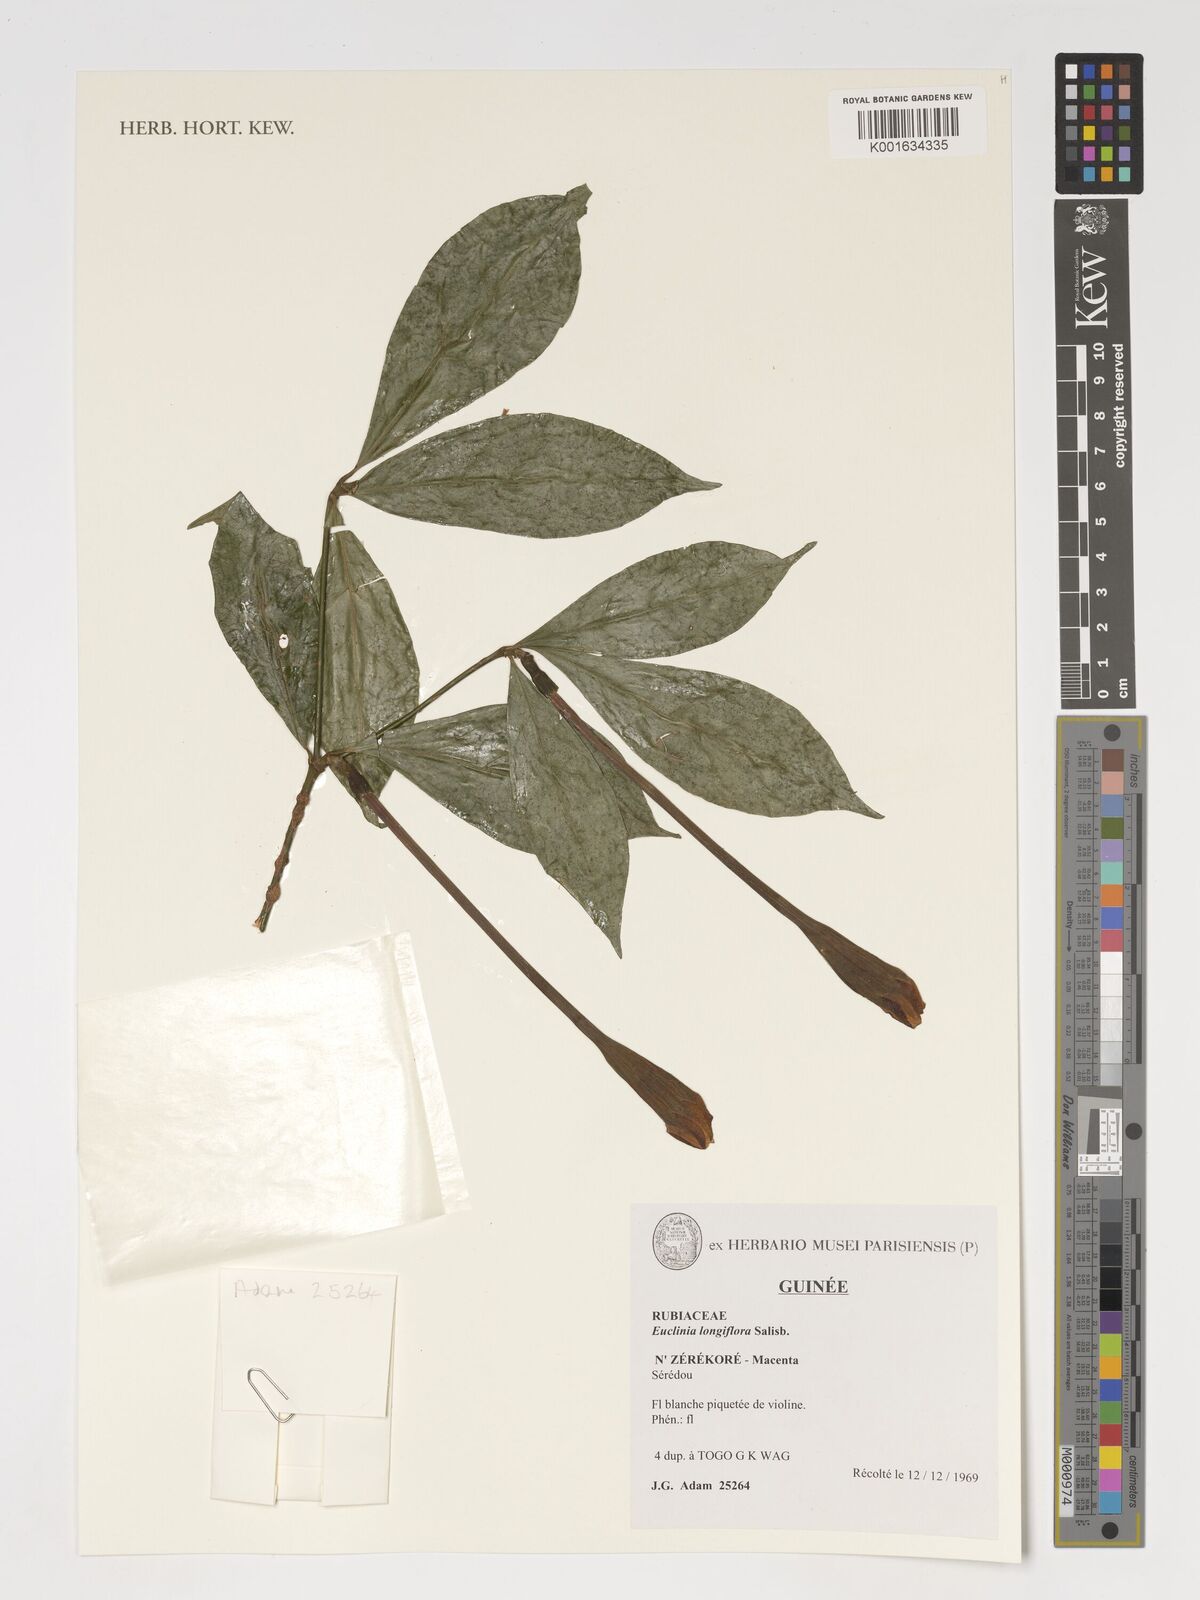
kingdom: Plantae
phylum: Tracheophyta
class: Magnoliopsida
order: Gentianales
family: Rubiaceae
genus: Euclinia
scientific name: Euclinia longiflora
